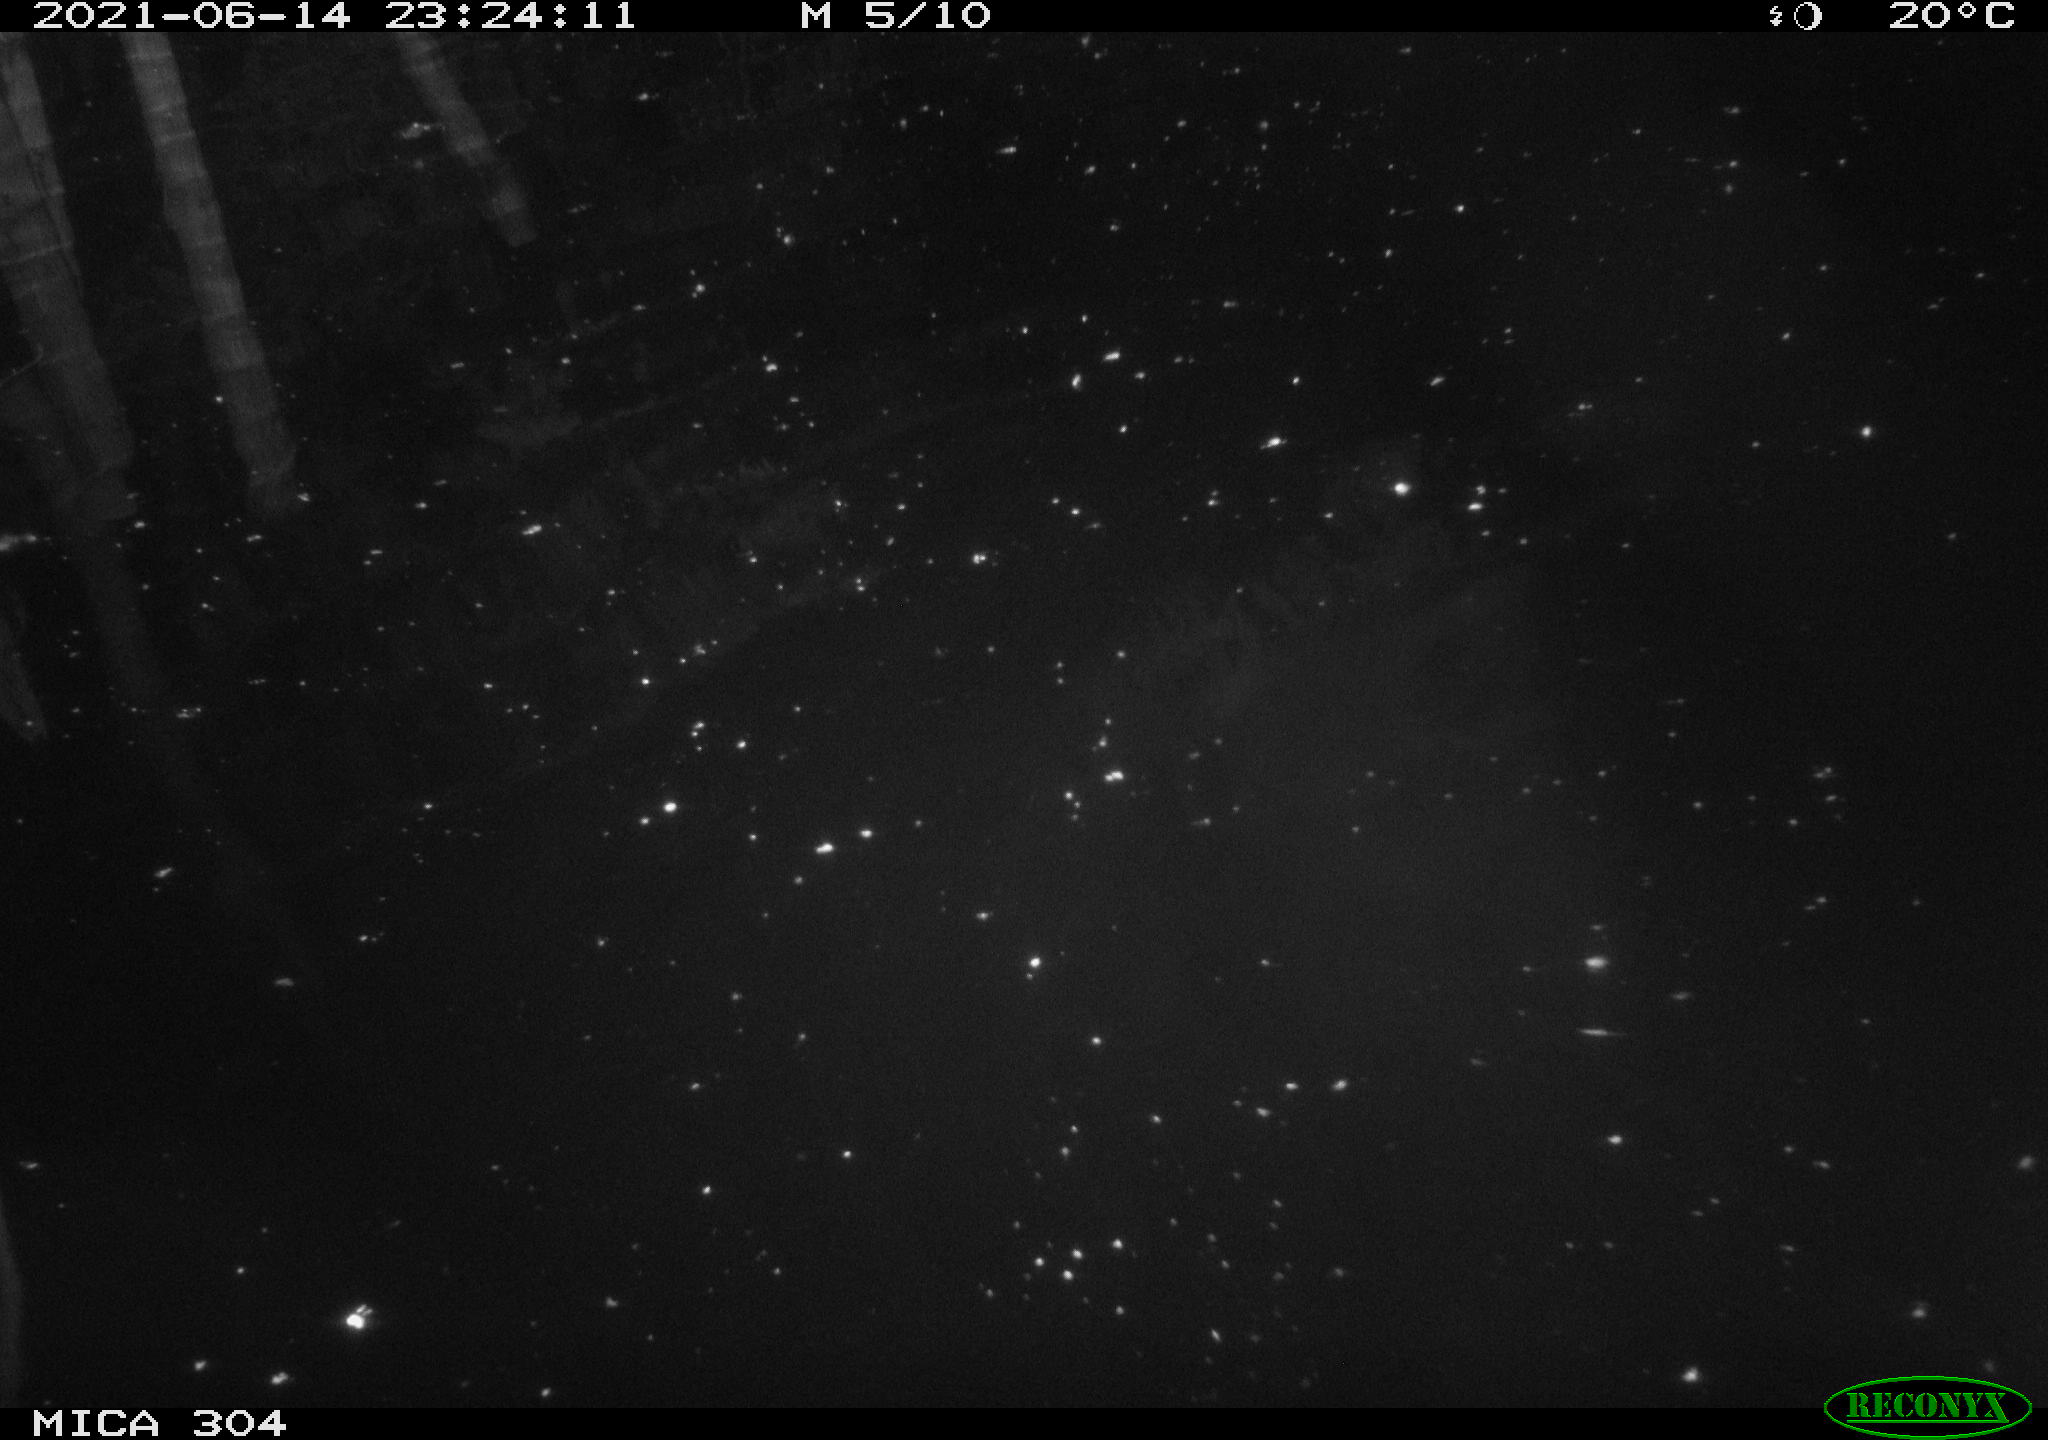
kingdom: Animalia
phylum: Chordata
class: Aves
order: Anseriformes
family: Anatidae
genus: Anas
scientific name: Anas platyrhynchos
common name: Mallard
